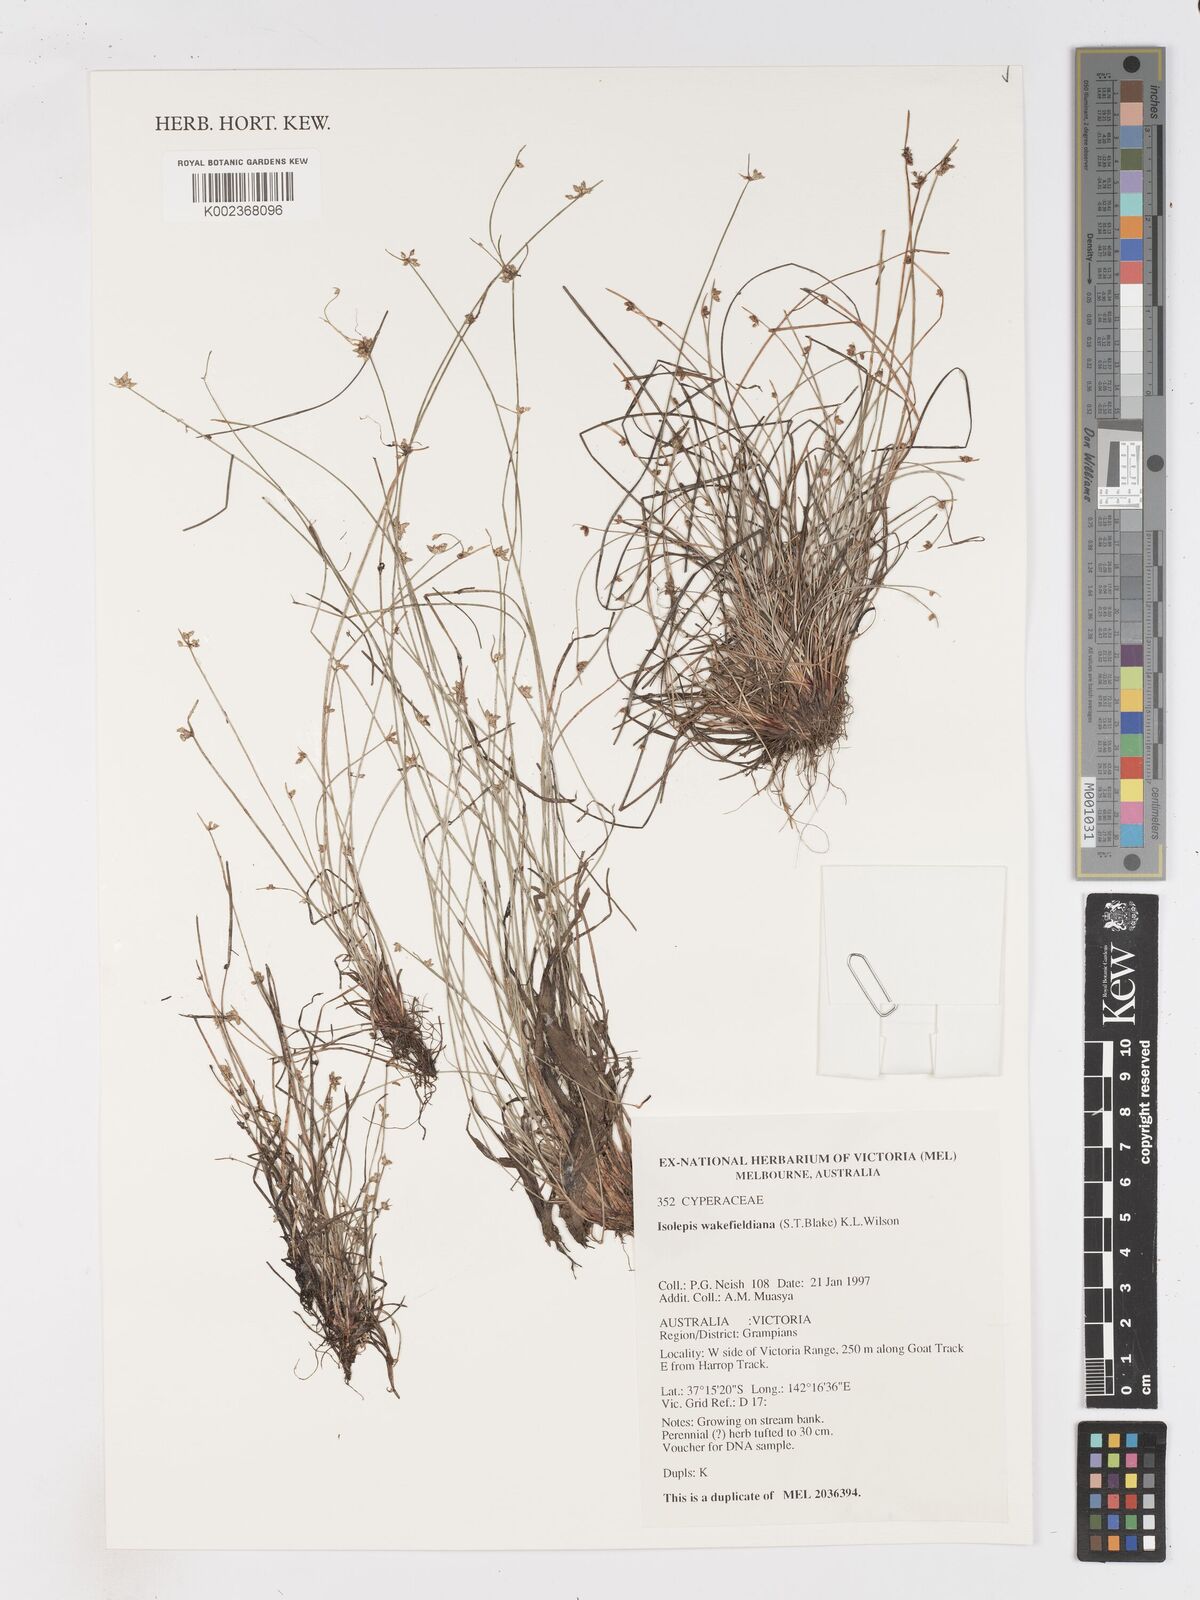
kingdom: Plantae
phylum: Tracheophyta
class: Liliopsida
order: Poales
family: Cyperaceae
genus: Isolepis
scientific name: Isolepis wakefieldiana
